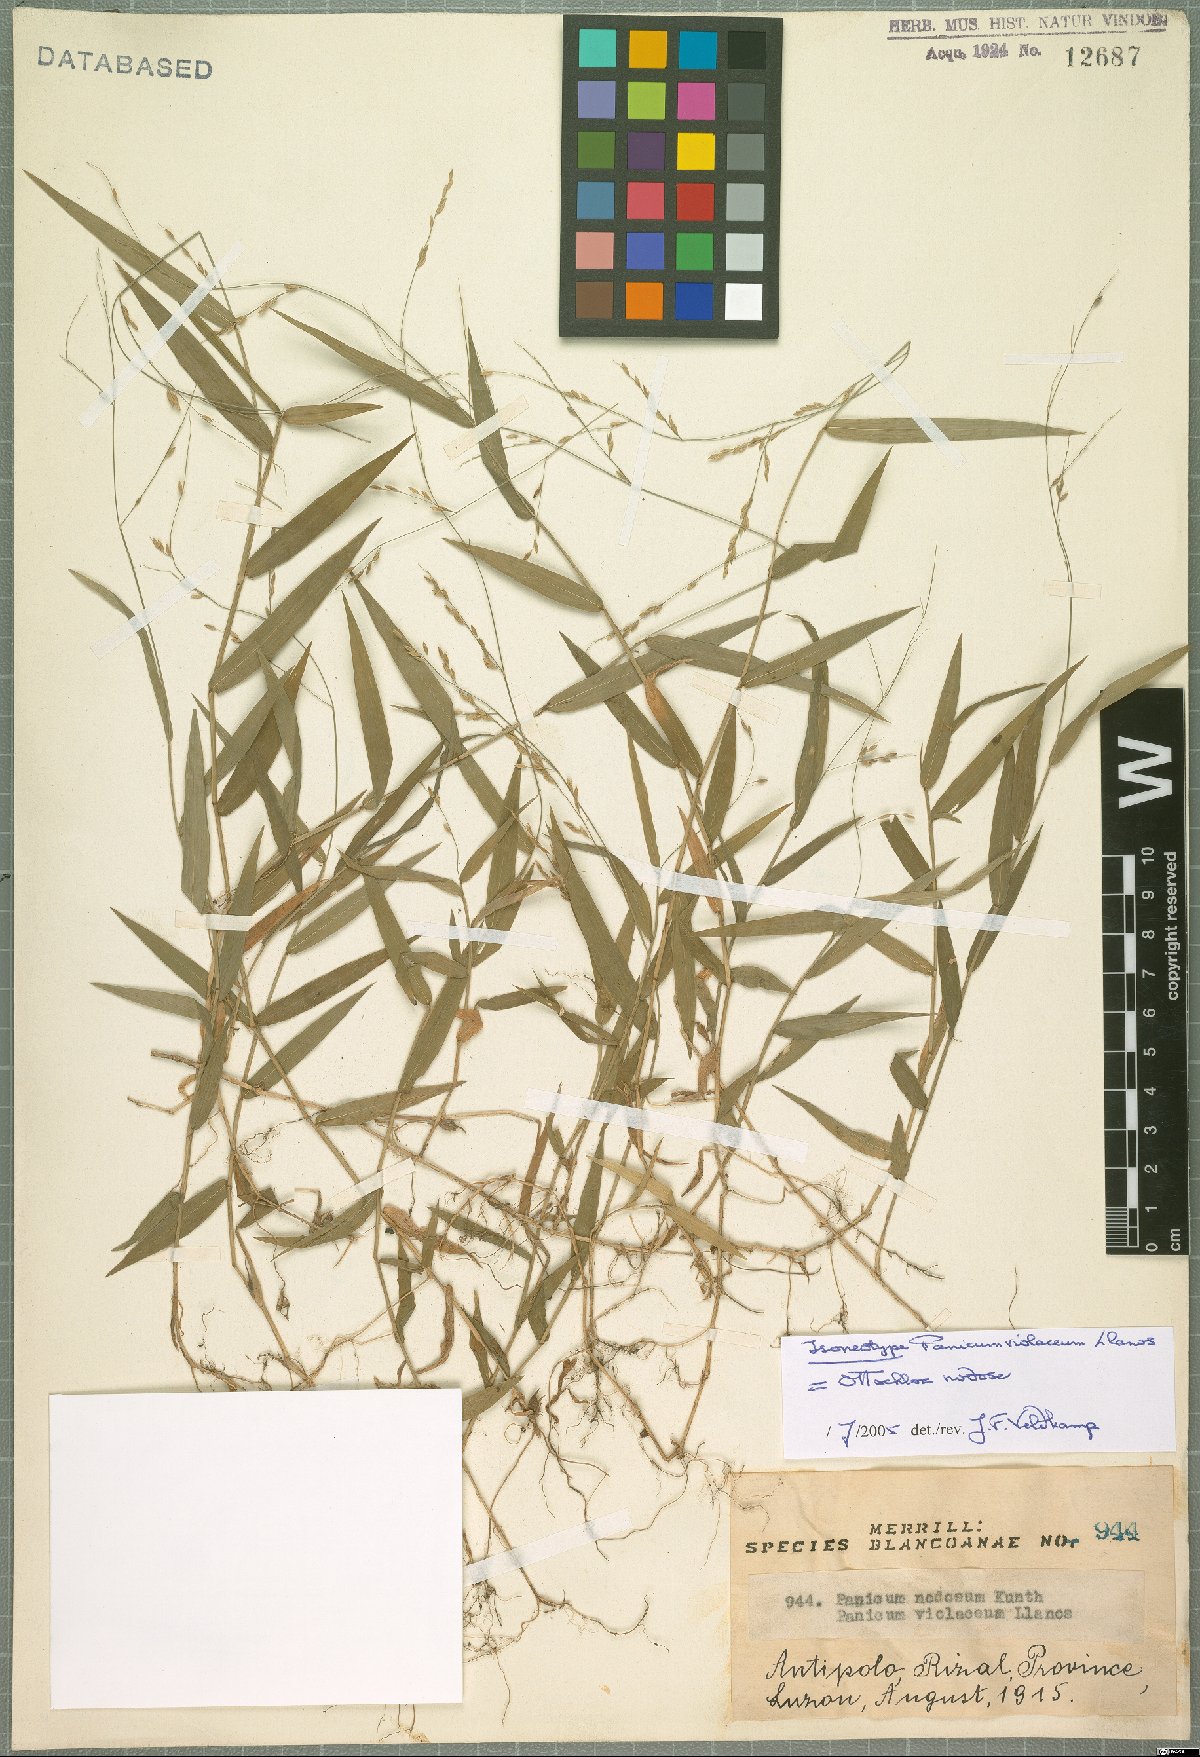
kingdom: Plantae
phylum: Tracheophyta
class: Liliopsida
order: Poales
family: Poaceae
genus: Ottochloa
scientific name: Ottochloa nodosa
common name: Slender-panic grass
